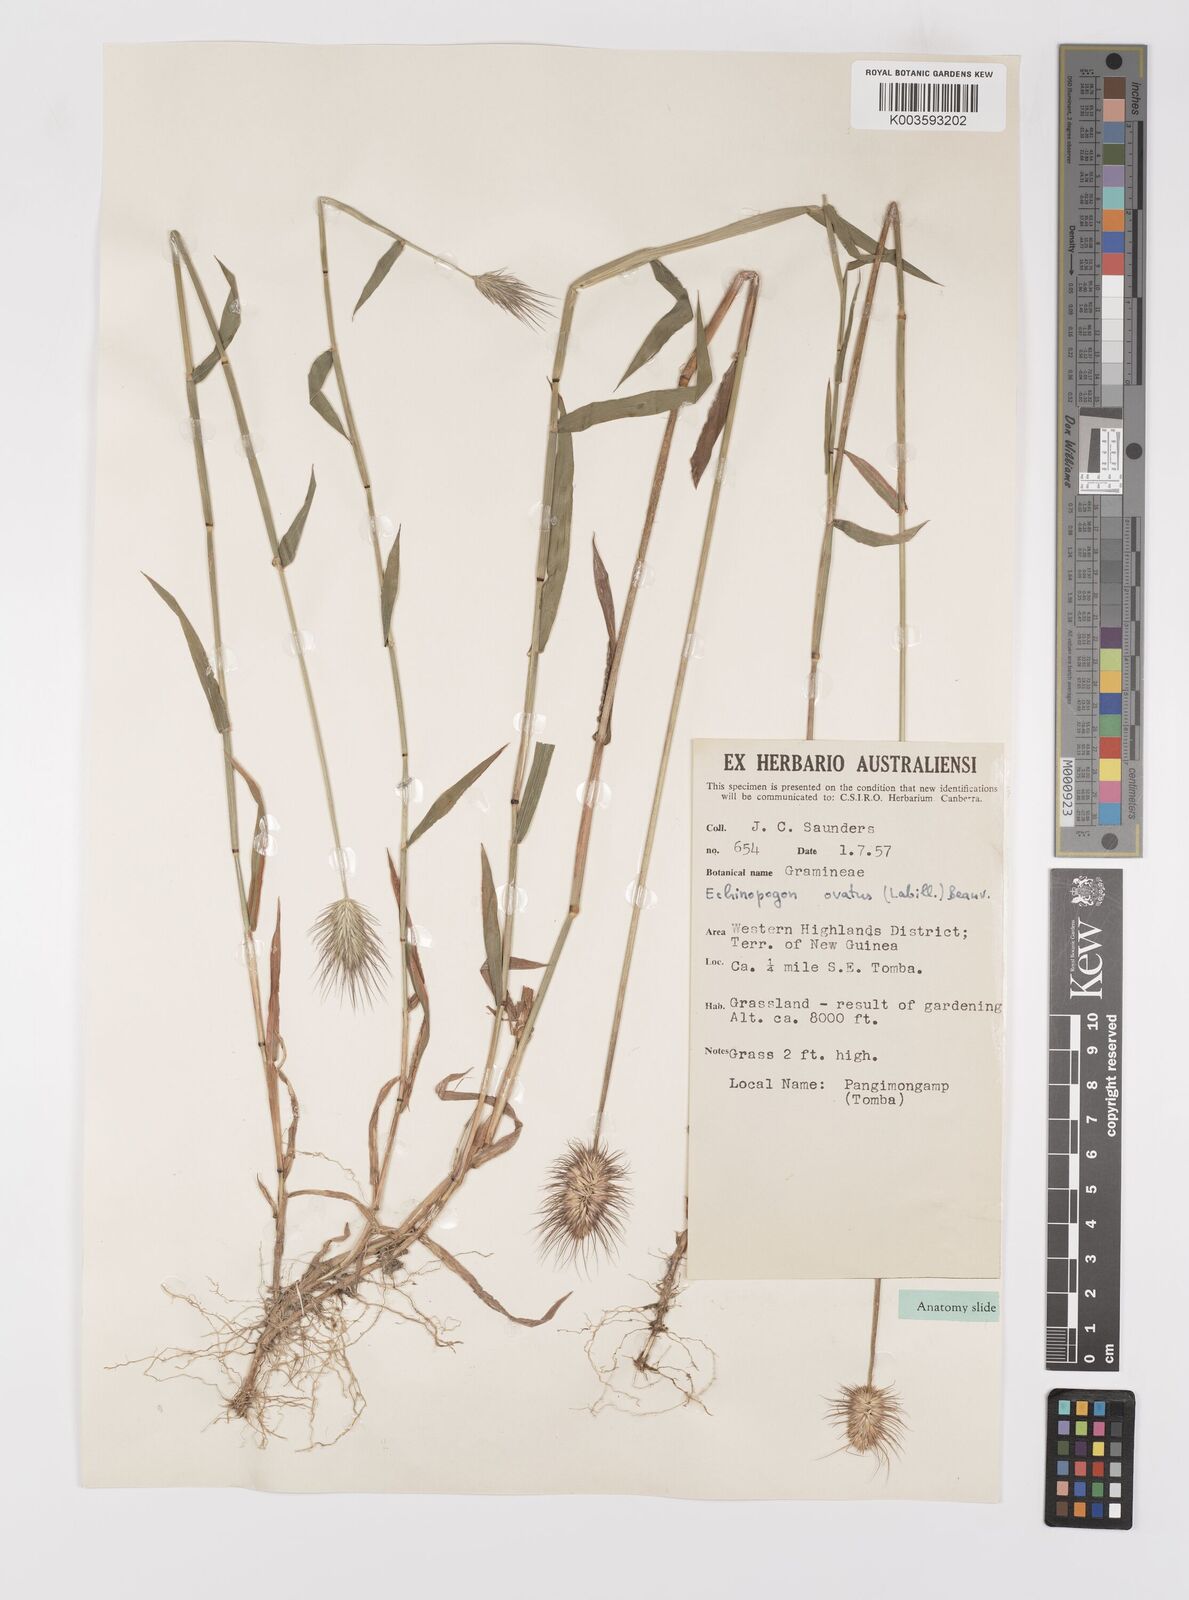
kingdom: Plantae
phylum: Tracheophyta
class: Liliopsida
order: Poales
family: Poaceae
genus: Echinopogon
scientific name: Echinopogon ovatus
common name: Hedgehog-grass
